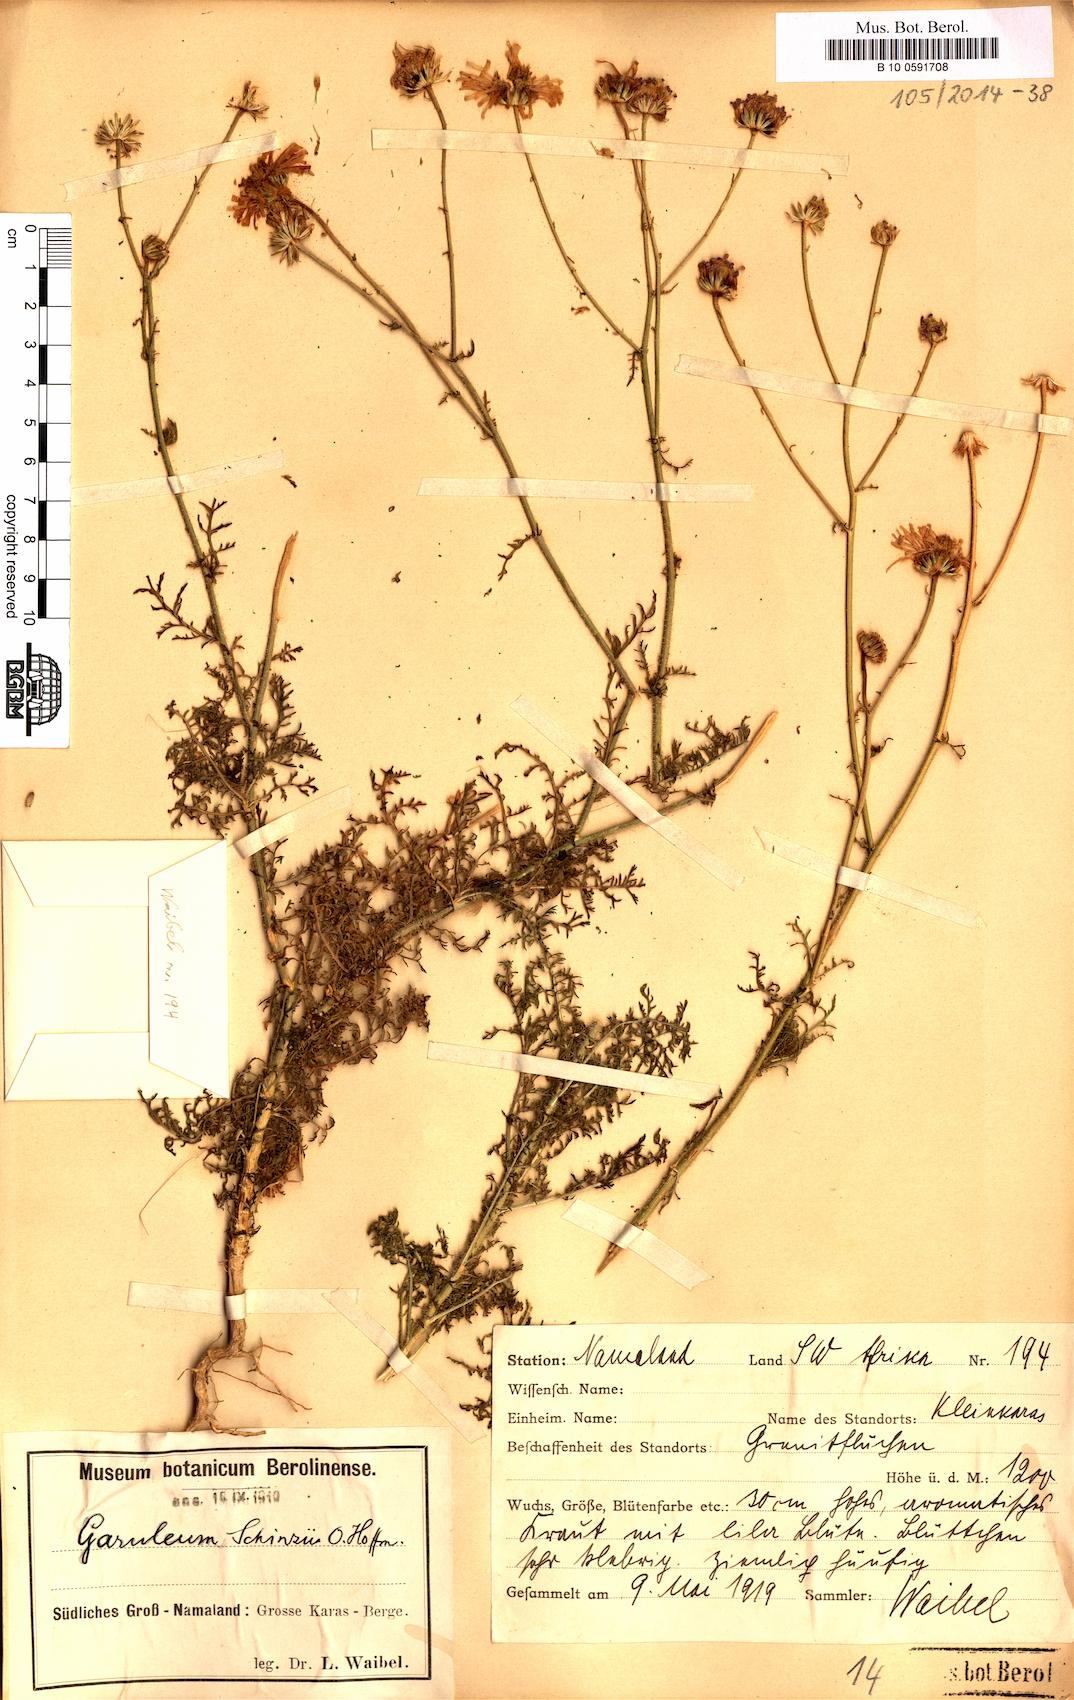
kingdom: Plantae
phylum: Tracheophyta
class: Magnoliopsida
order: Asterales
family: Asteraceae
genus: Garuleum
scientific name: Garuleum schinzii
